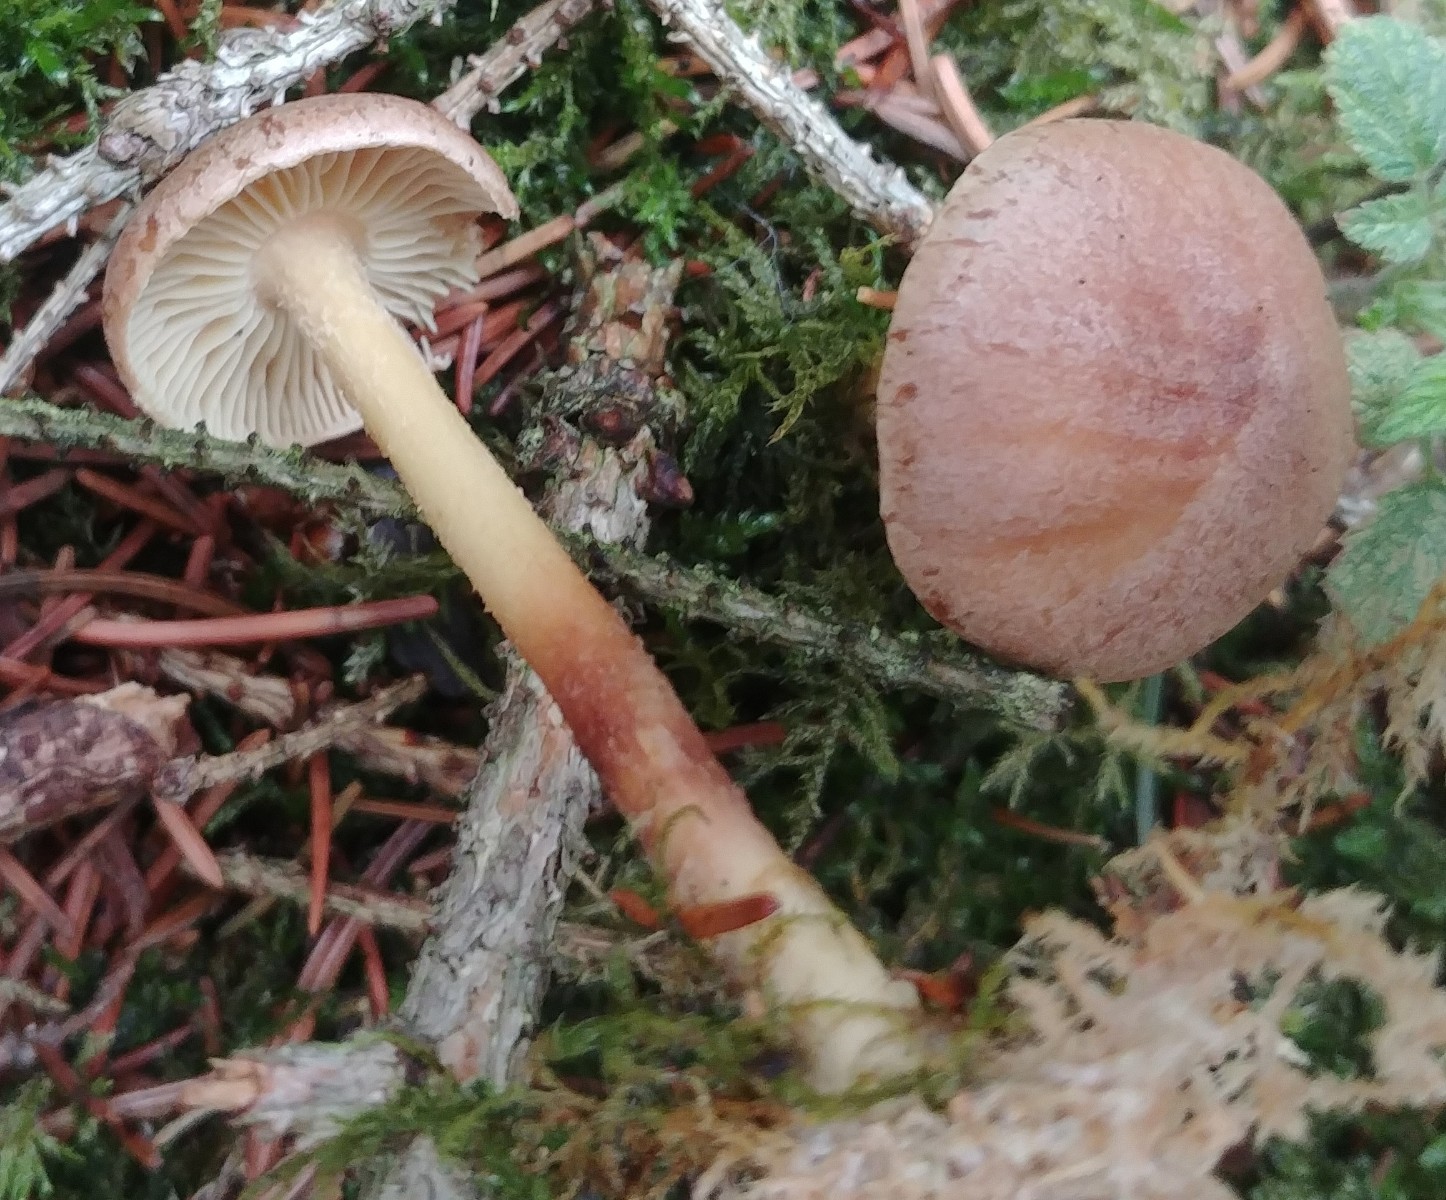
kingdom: Fungi
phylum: Basidiomycota
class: Agaricomycetes
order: Agaricales
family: Omphalotaceae
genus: Collybiopsis
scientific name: Collybiopsis peronata
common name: bestøvlet fladhat
